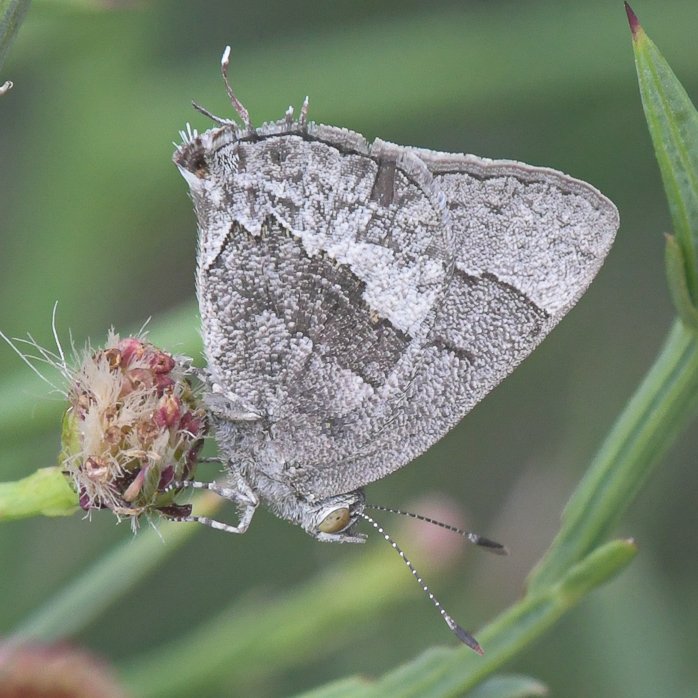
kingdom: Animalia
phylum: Arthropoda
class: Insecta
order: Lepidoptera
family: Lycaenidae
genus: Ministrymon
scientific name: Ministrymon leda
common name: Leda Ministreak
